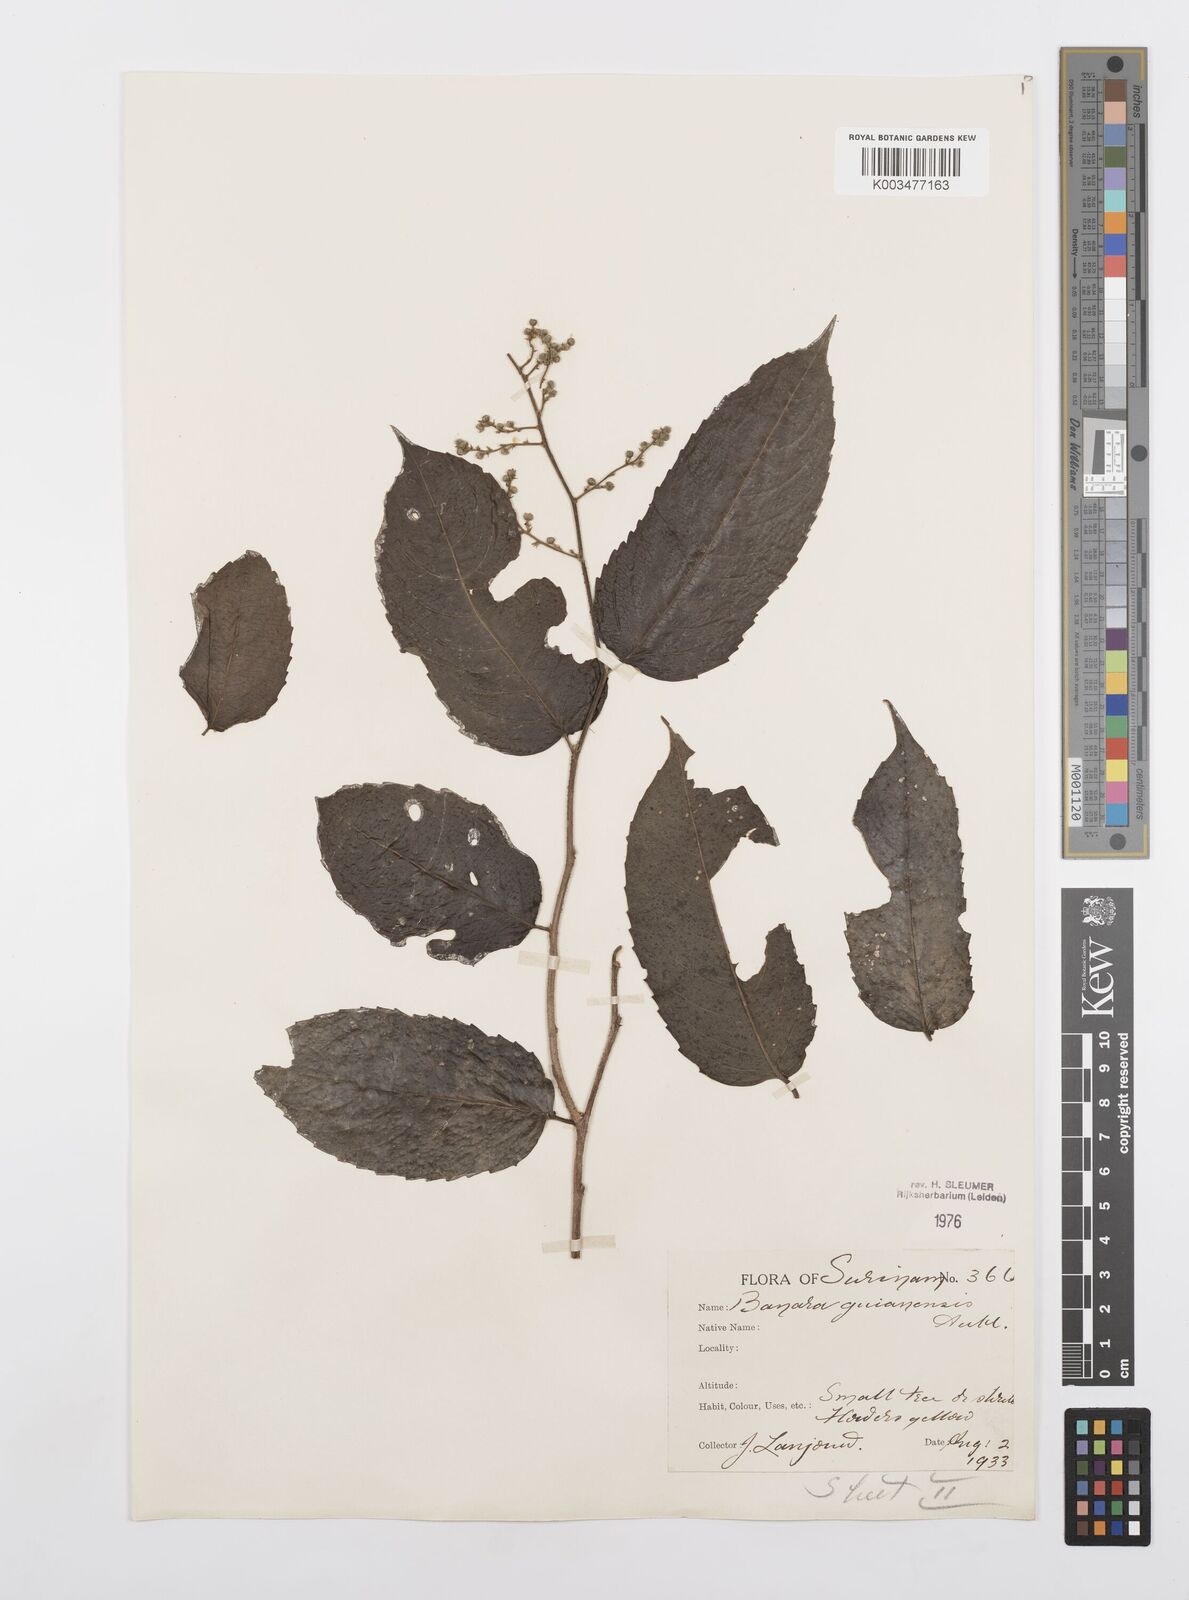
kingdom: Plantae
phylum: Tracheophyta
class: Magnoliopsida
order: Malpighiales
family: Salicaceae
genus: Banara
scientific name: Banara guianensis
